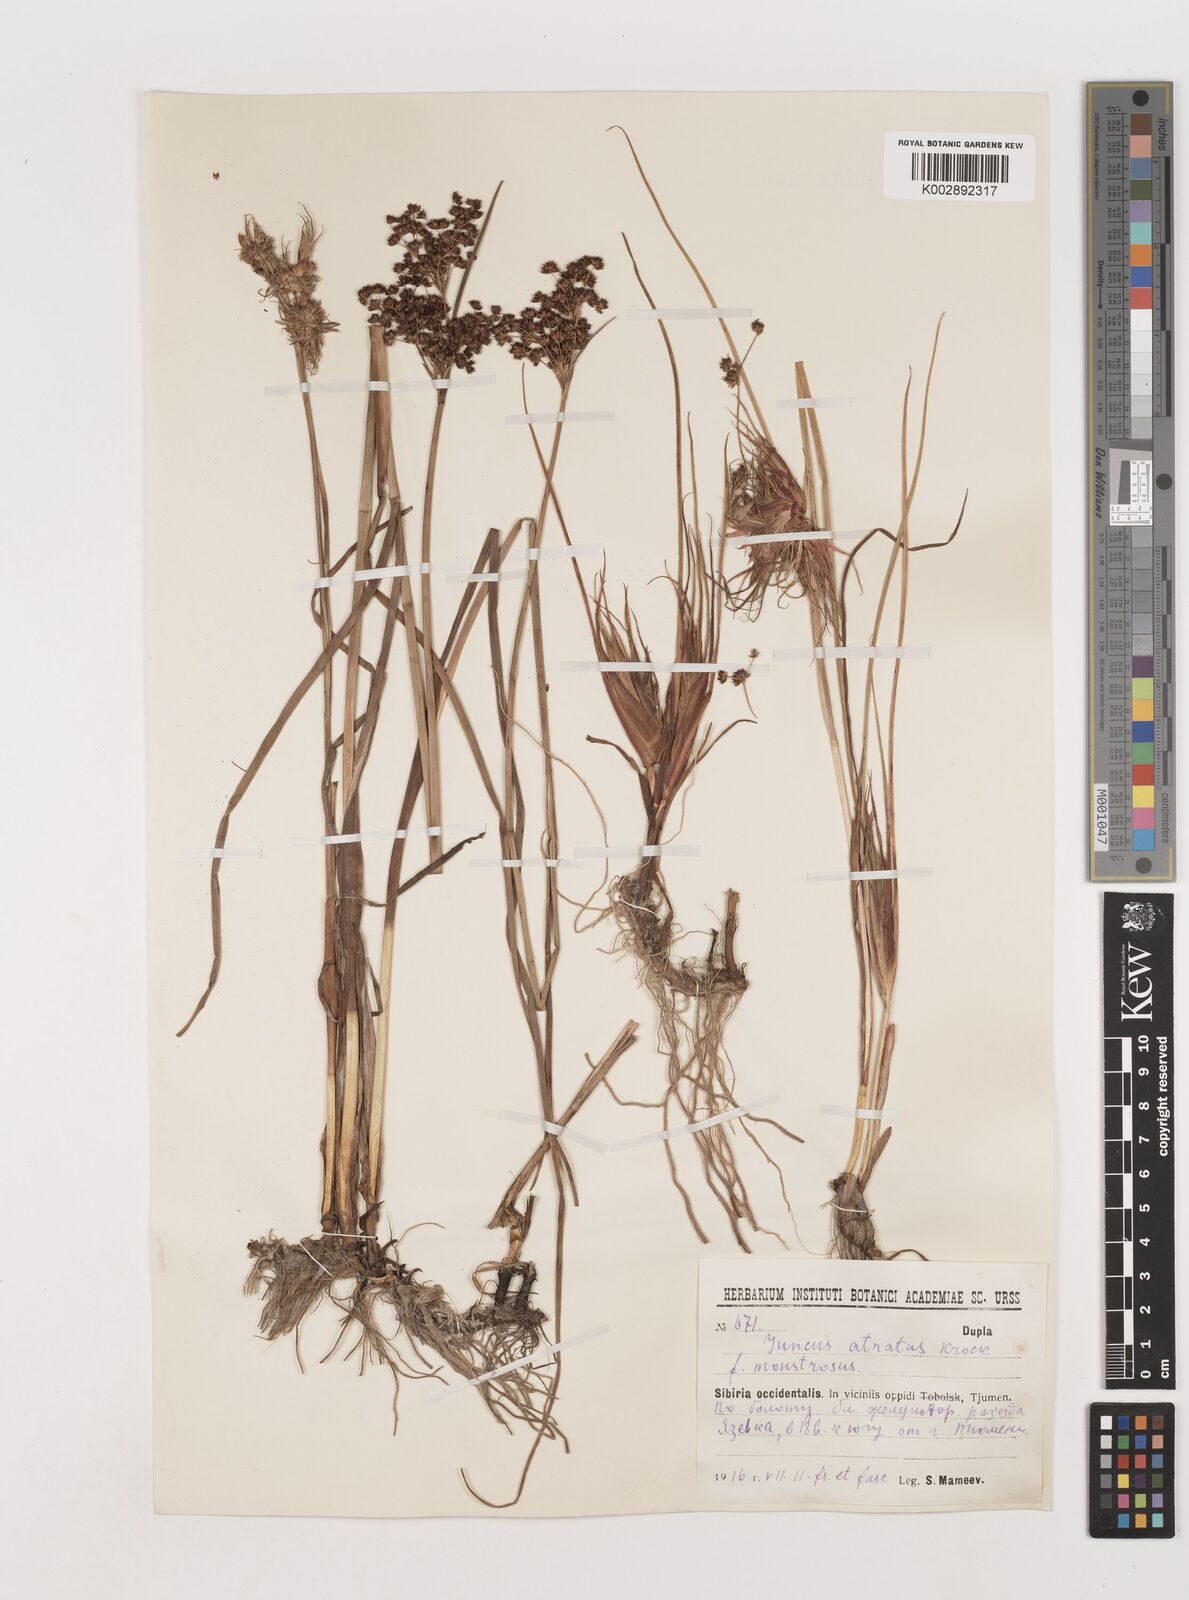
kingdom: Plantae
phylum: Tracheophyta
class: Liliopsida
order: Poales
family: Juncaceae
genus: Juncus
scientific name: Juncus atratus
